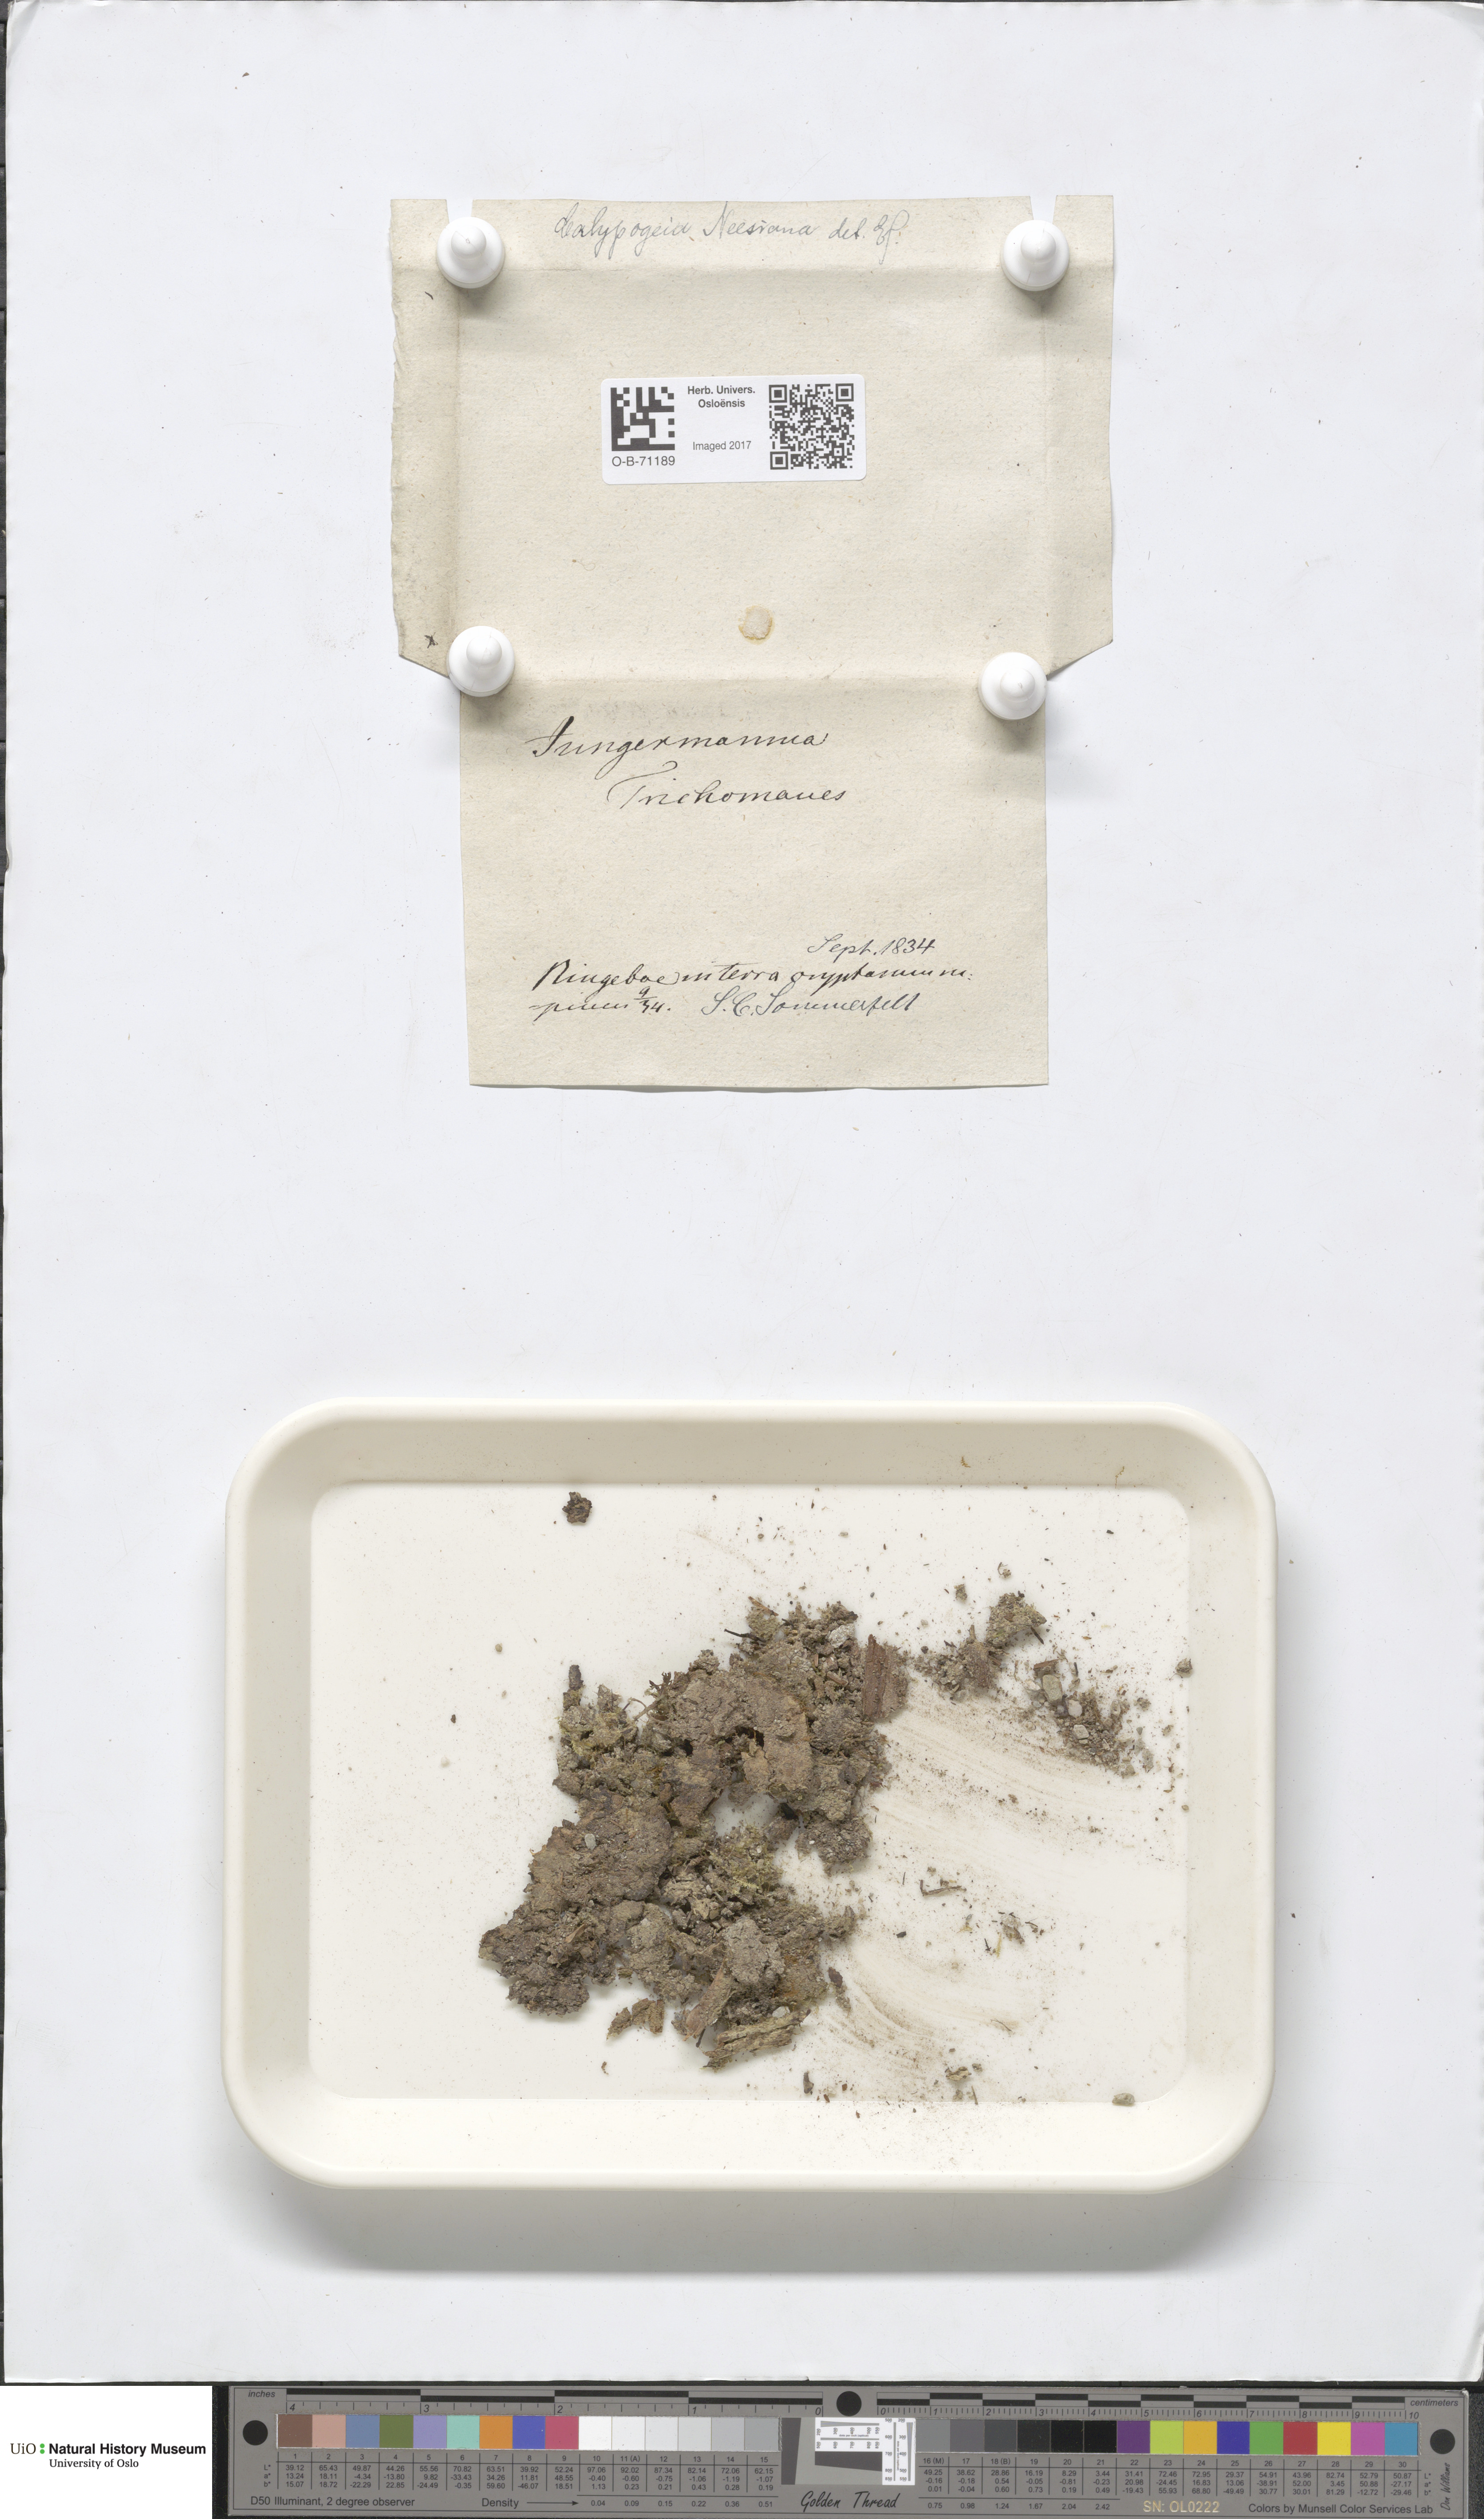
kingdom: Plantae
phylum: Marchantiophyta
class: Jungermanniopsida
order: Jungermanniales
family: Calypogeiaceae
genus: Calypogeia
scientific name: Calypogeia neesiana
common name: Nees  pouchwort
